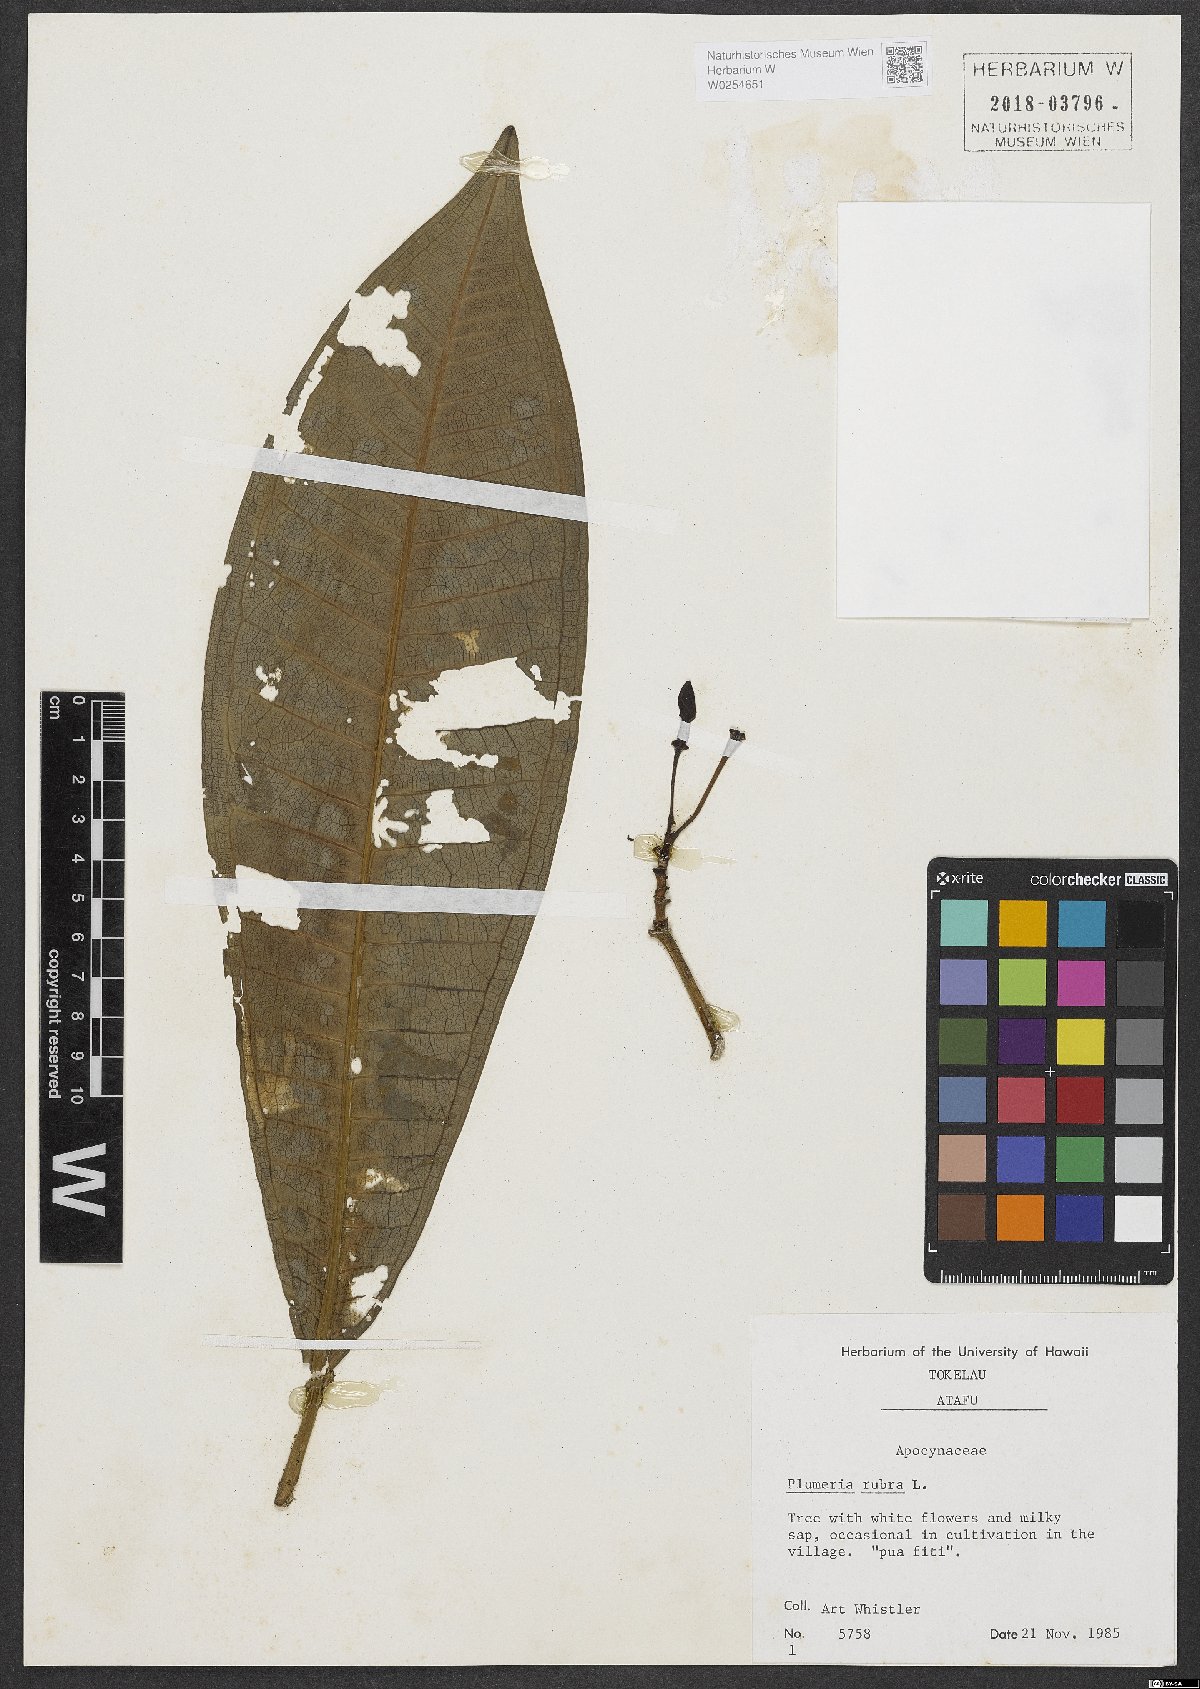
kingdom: Plantae
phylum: Tracheophyta
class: Magnoliopsida
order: Gentianales
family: Apocynaceae
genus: Plumeria
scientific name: Plumeria rubra
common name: Pagoda-tree
